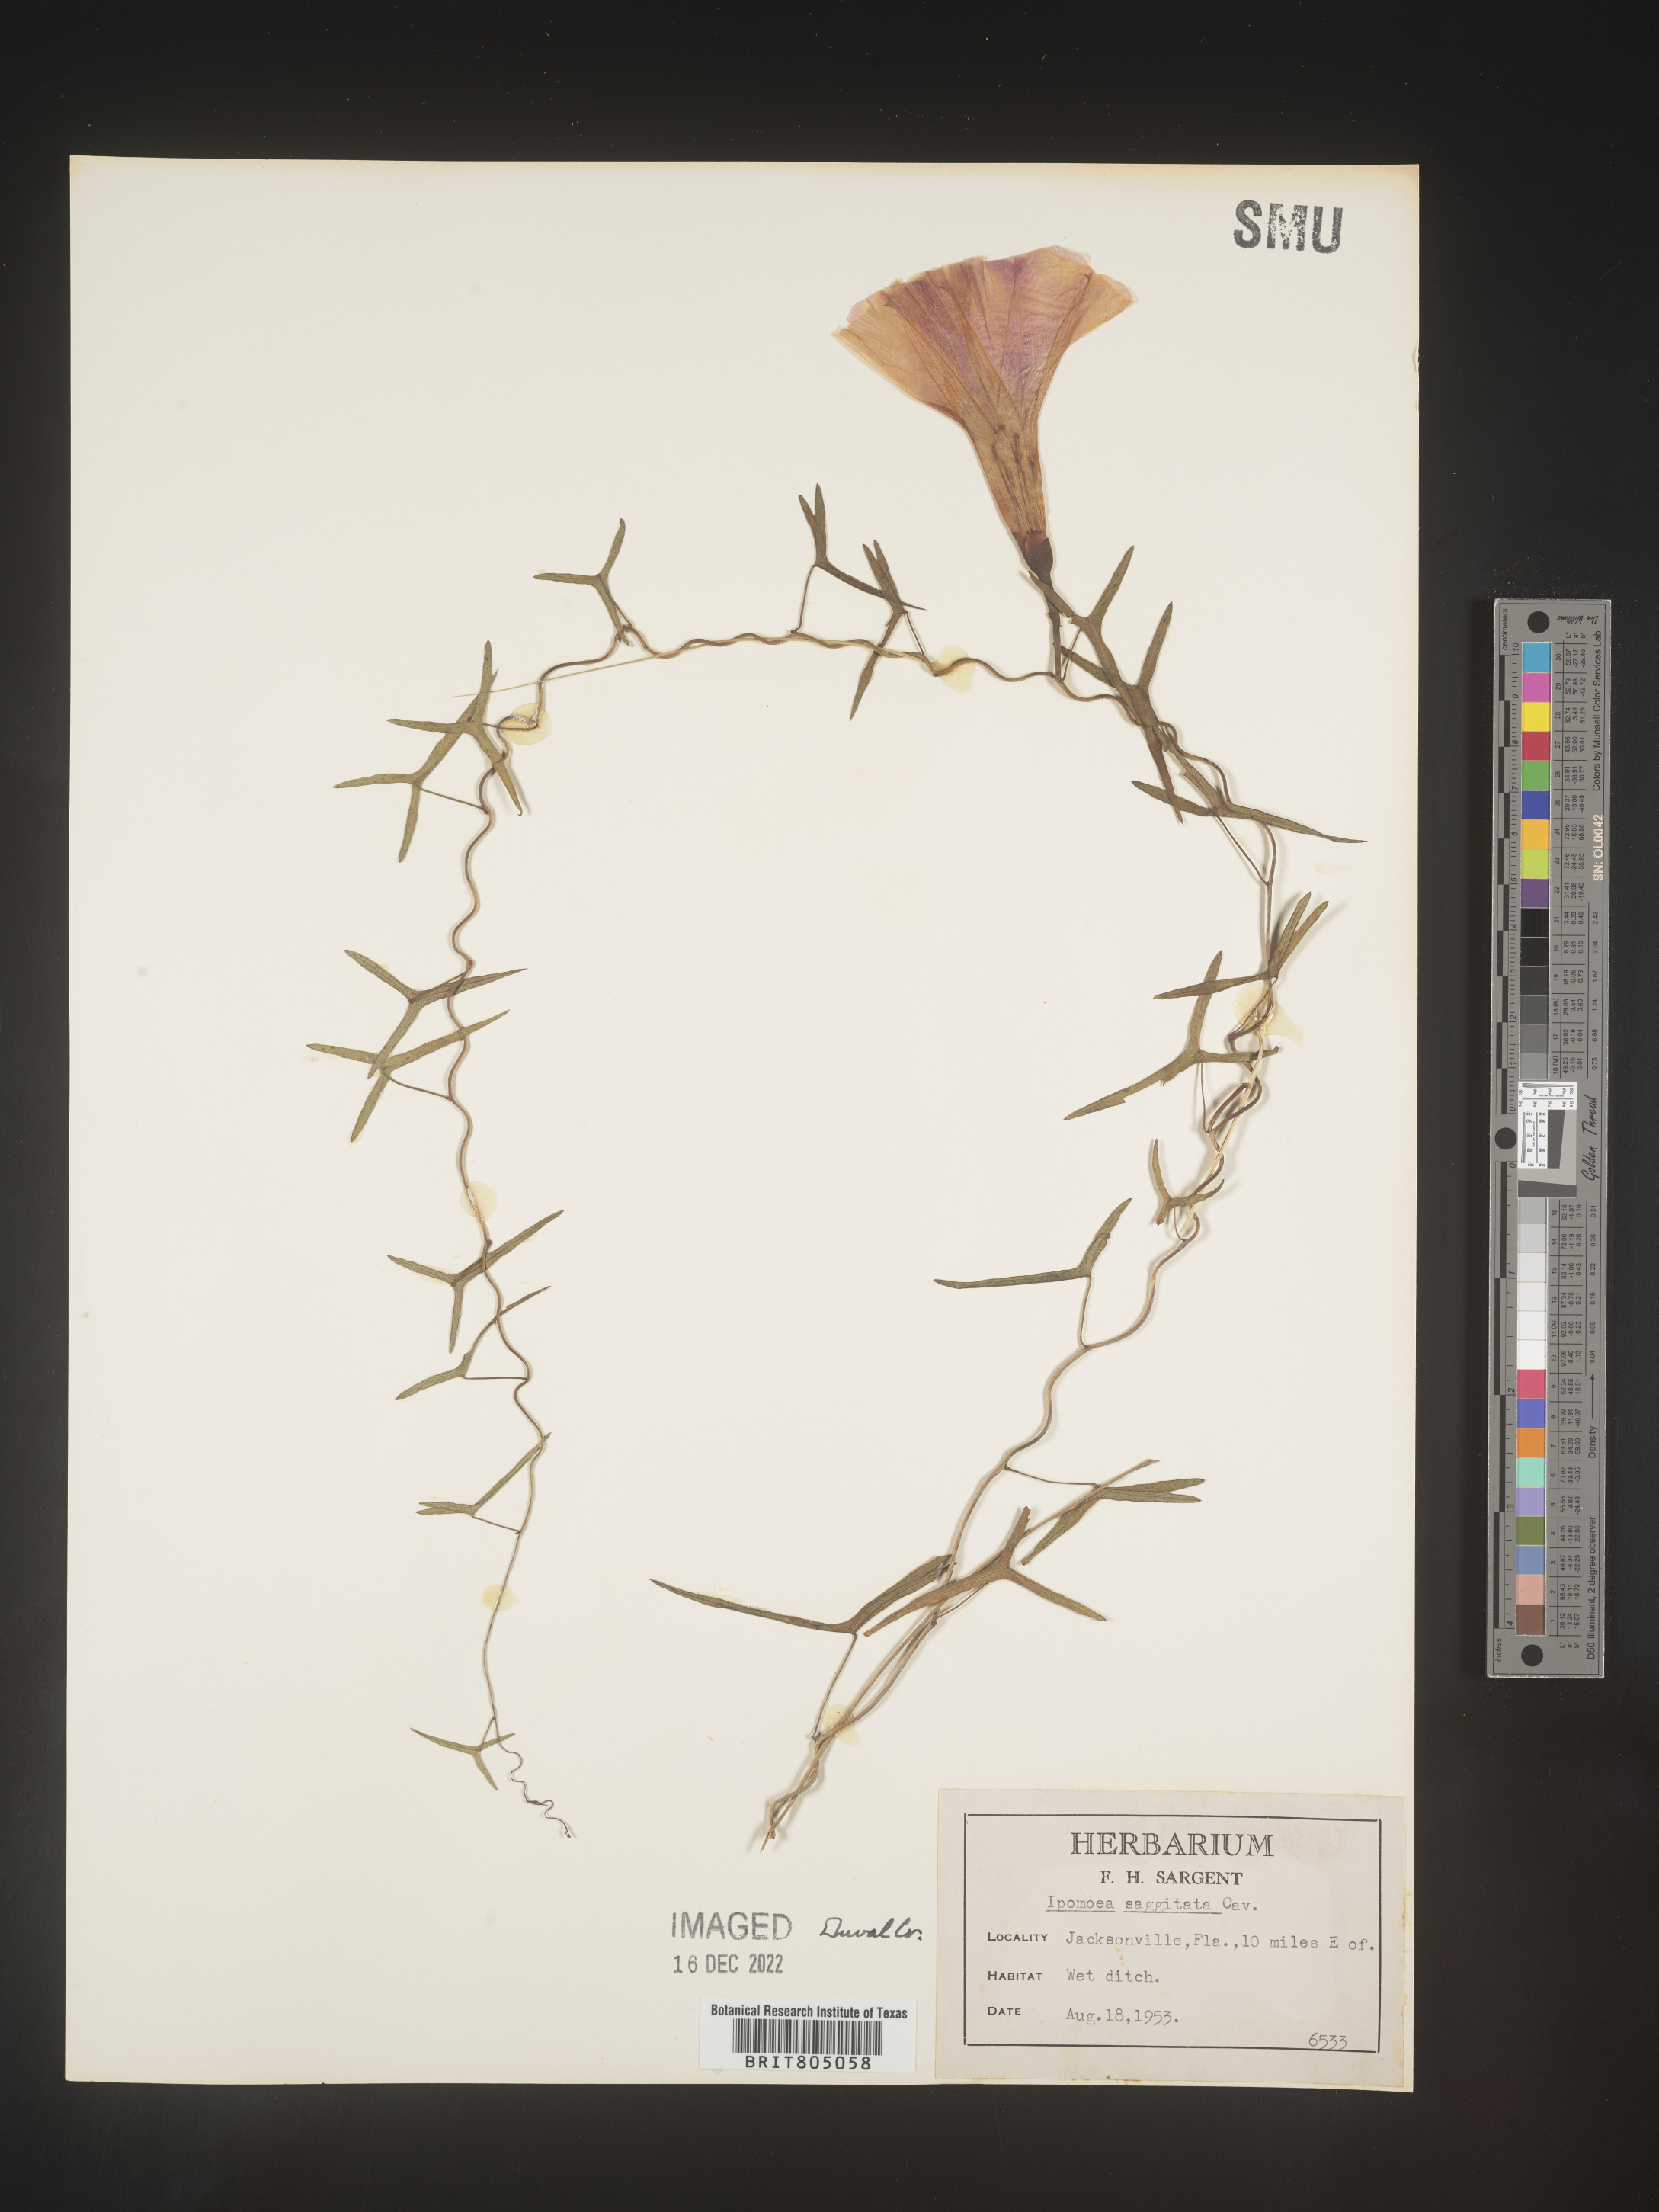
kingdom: Plantae
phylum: Tracheophyta
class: Magnoliopsida
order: Solanales
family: Convolvulaceae
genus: Ipomoea
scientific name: Ipomoea sinensis
